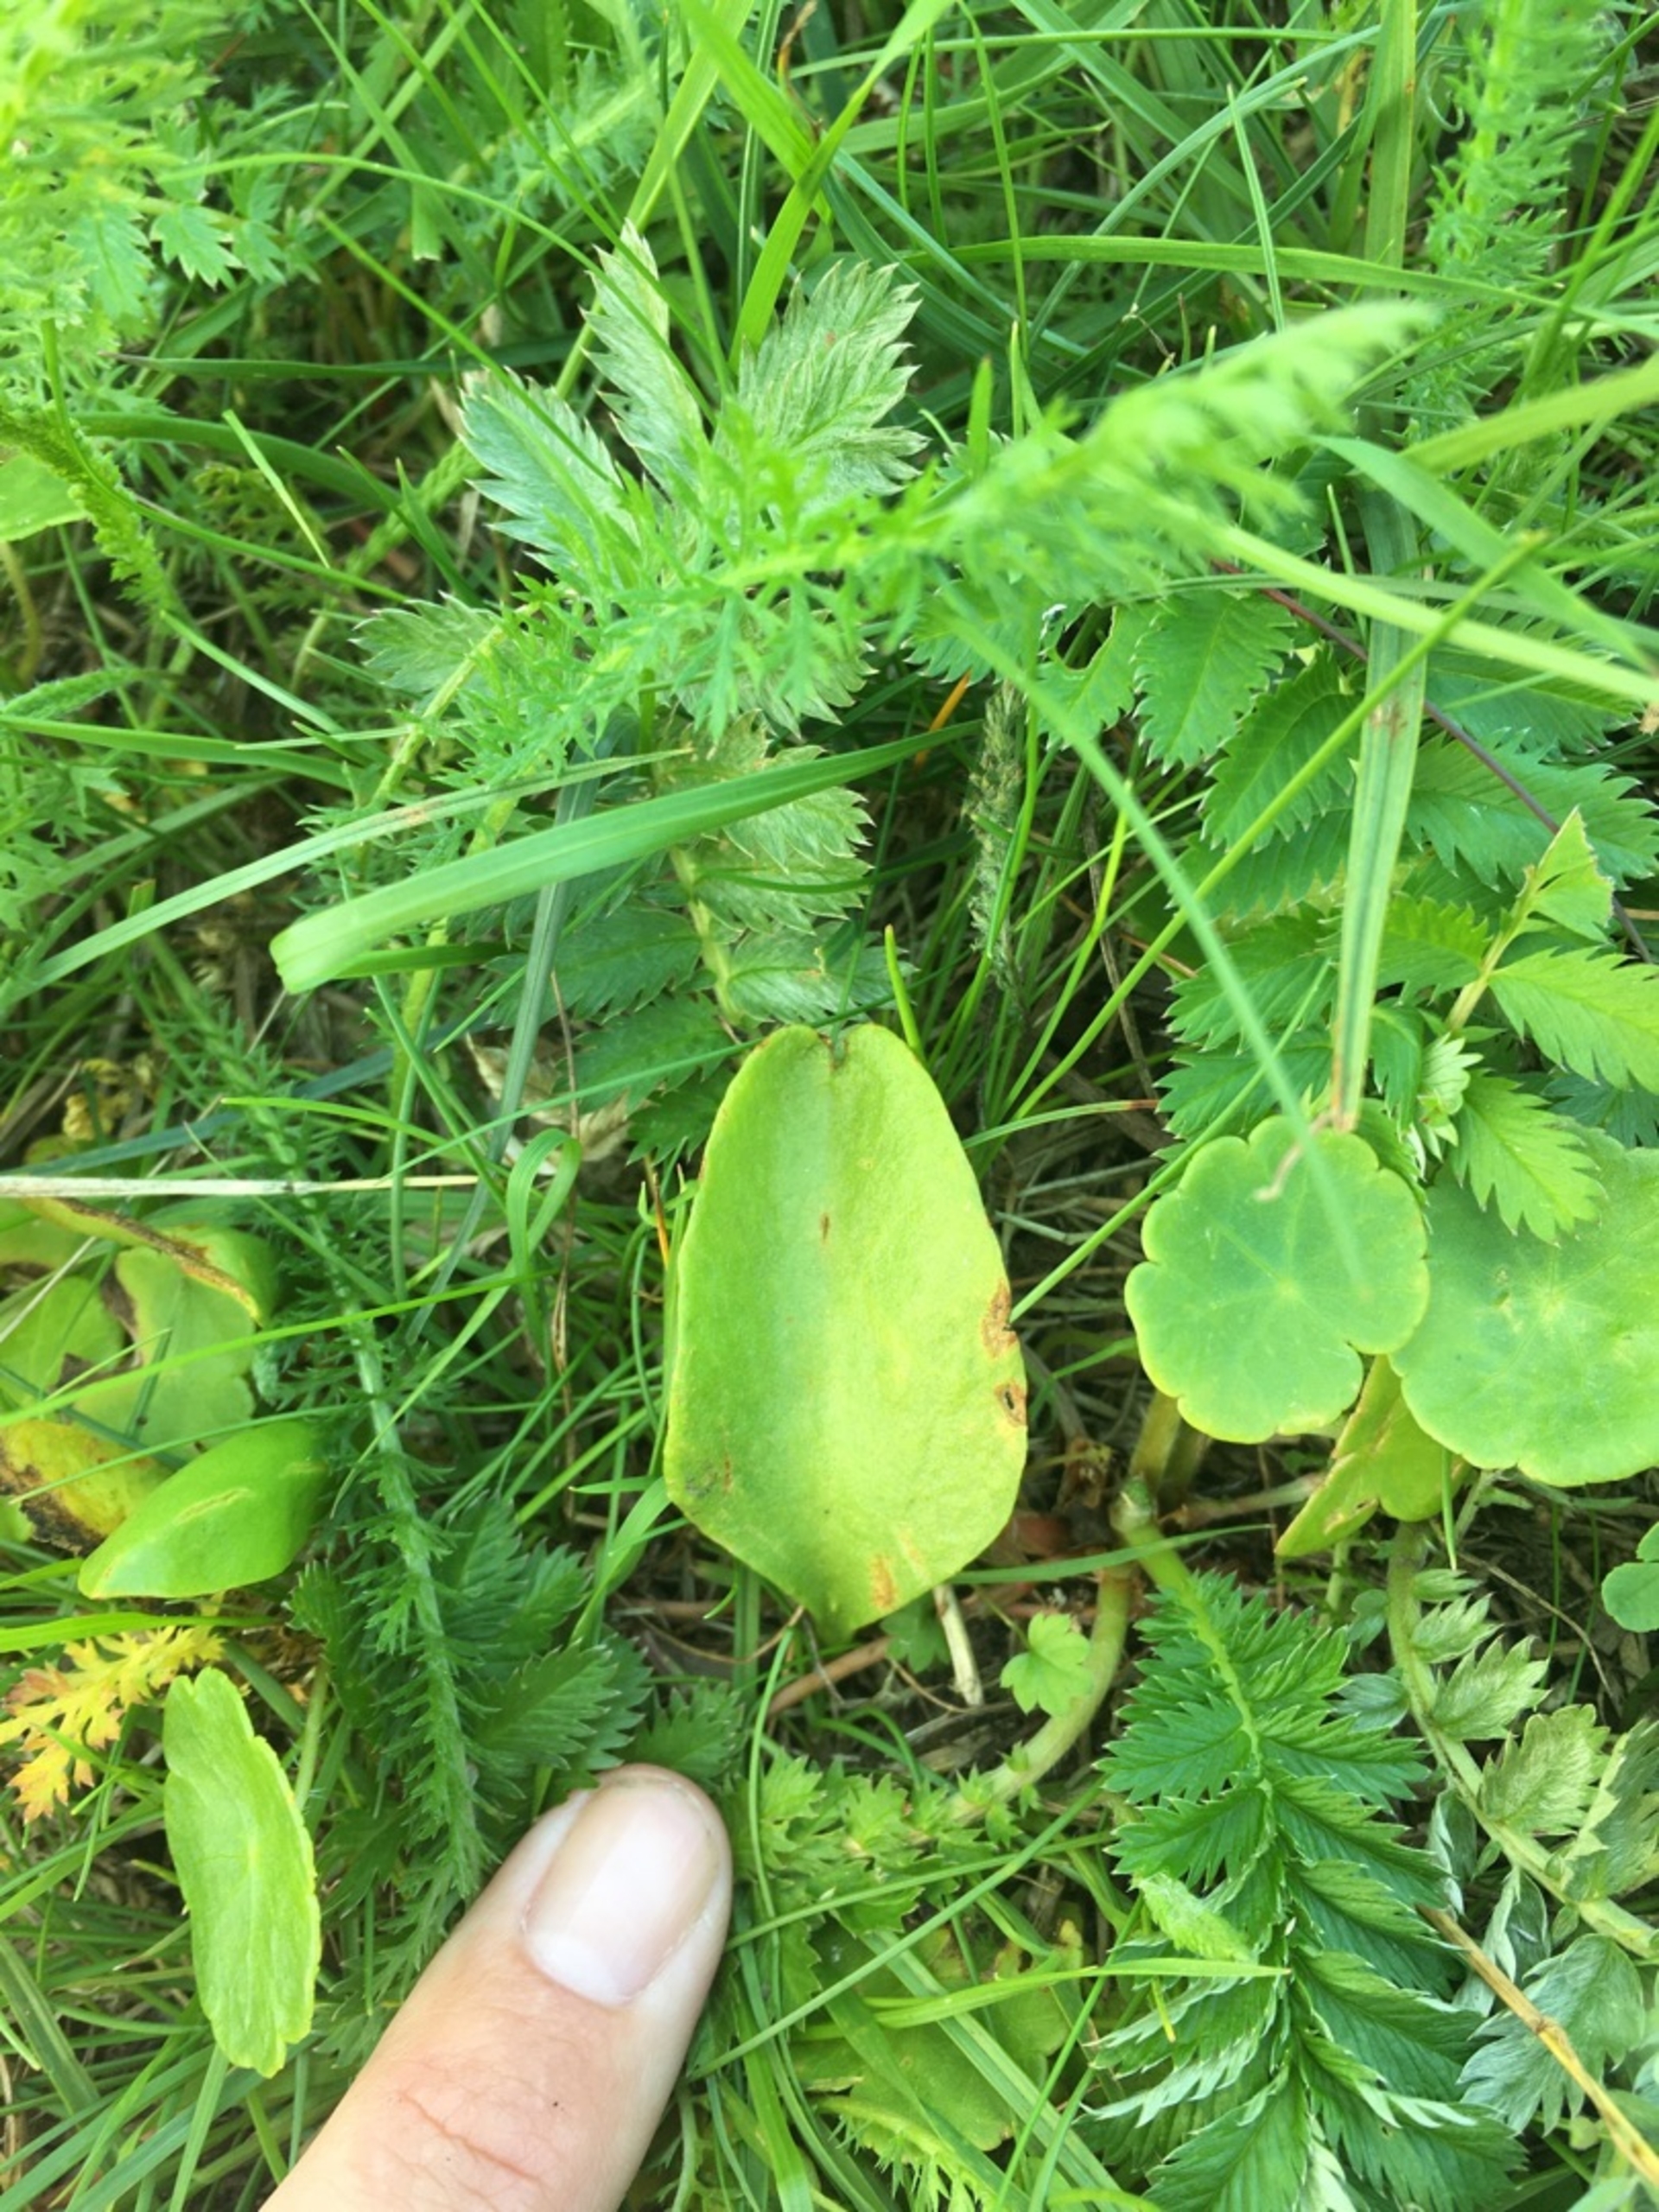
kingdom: Plantae
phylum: Tracheophyta
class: Polypodiopsida
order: Ophioglossales
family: Ophioglossaceae
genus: Ophioglossum
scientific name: Ophioglossum vulgatum
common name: Slangetunge
